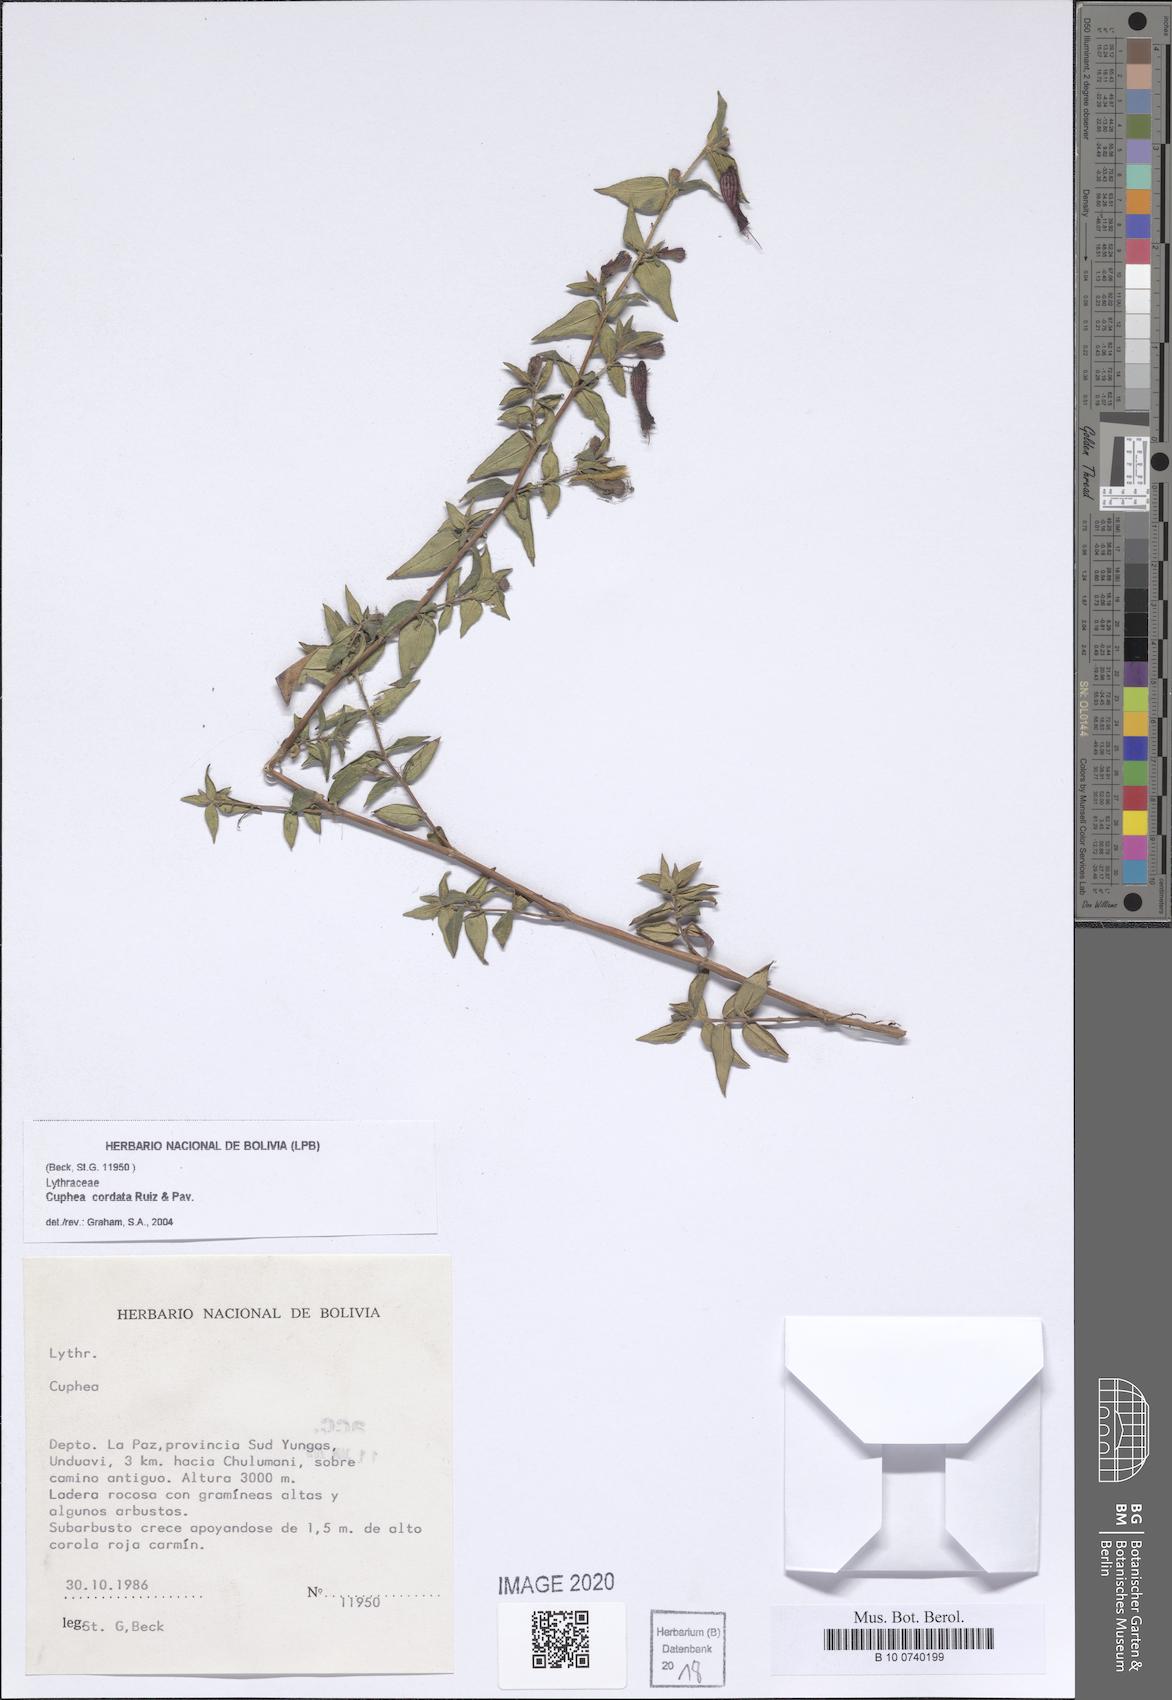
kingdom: Plantae
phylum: Tracheophyta
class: Magnoliopsida
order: Myrtales
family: Lythraceae
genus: Cuphea
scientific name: Cuphea cordata
